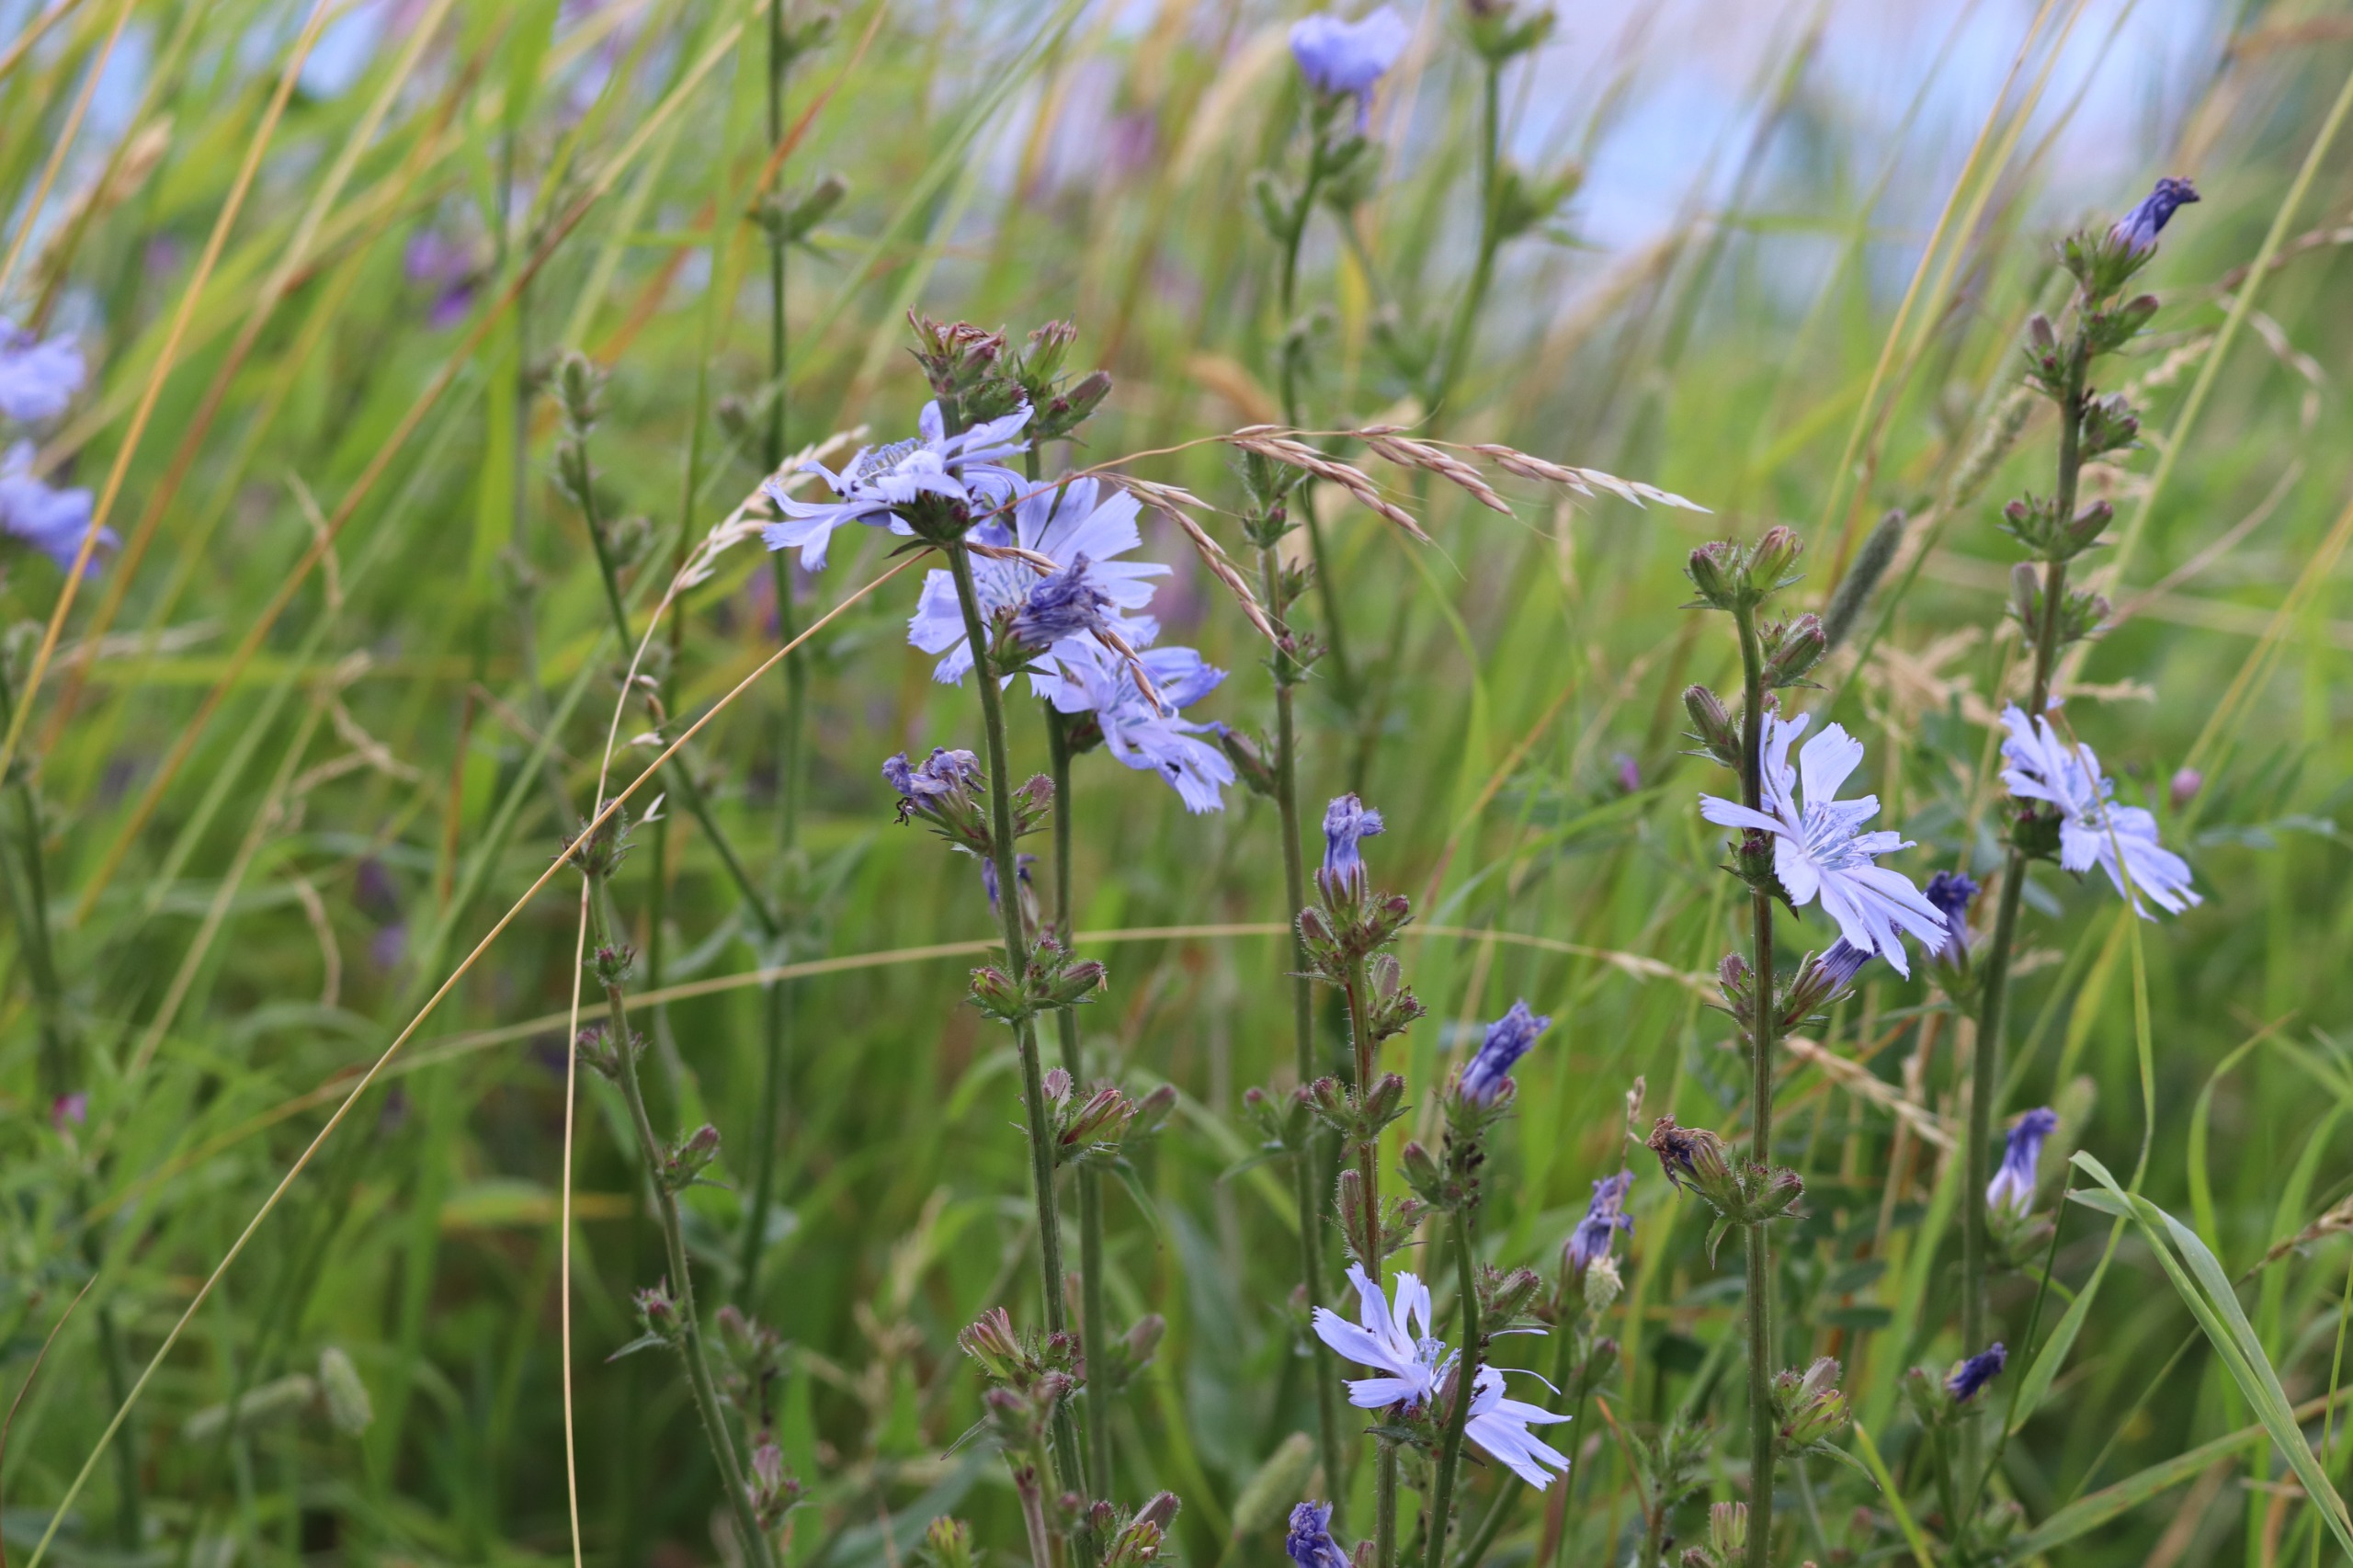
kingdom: Plantae
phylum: Tracheophyta
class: Magnoliopsida
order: Asterales
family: Asteraceae
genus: Cichorium
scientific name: Cichorium intybus
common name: Cikorie
